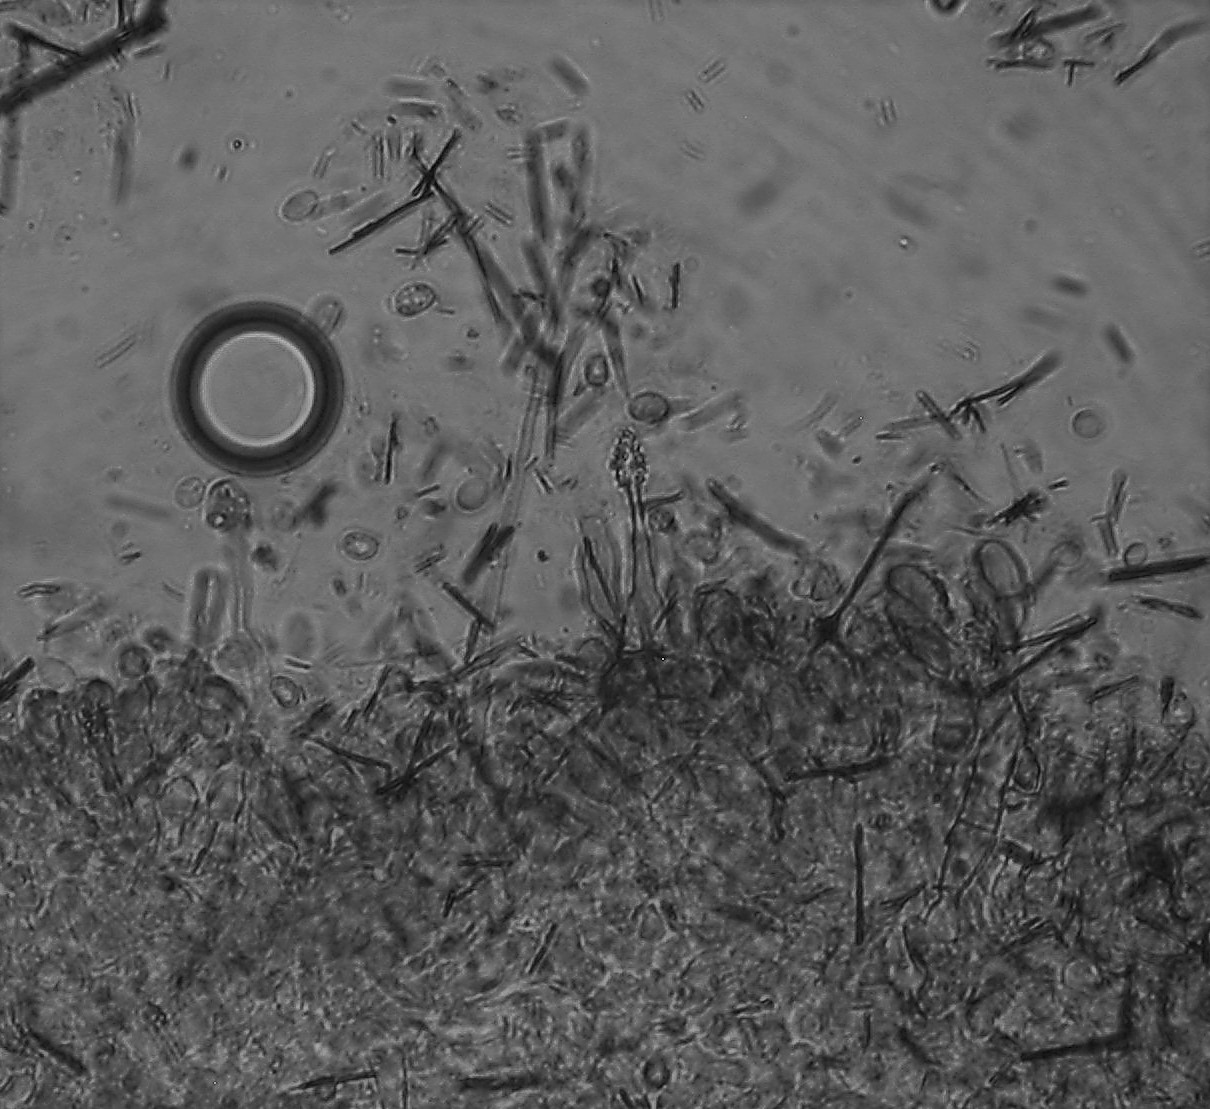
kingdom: Fungi
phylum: Basidiomycota
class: Agaricomycetes
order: Hymenochaetales
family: Hyphodontiaceae
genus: Hyphodontia
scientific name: Hyphodontia alutaria
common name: flaskerenser-nålehinde
